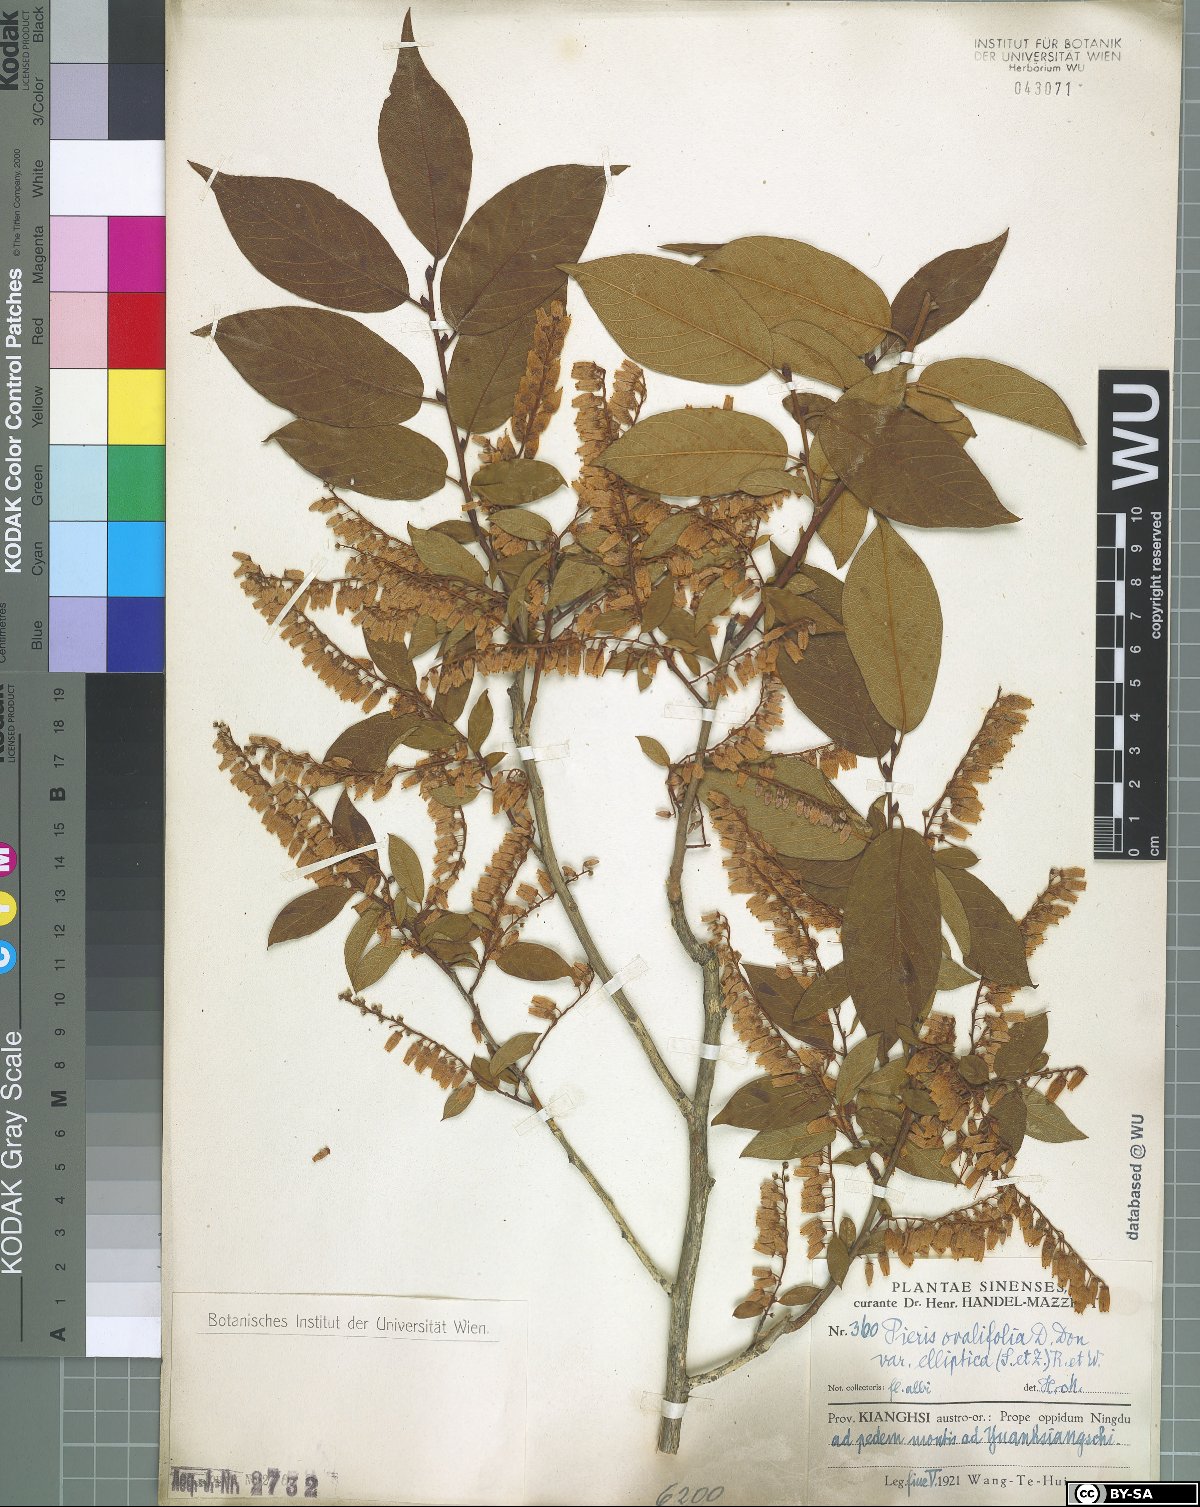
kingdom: Plantae
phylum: Tracheophyta
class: Magnoliopsida
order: Ericales
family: Ericaceae
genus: Lyonia
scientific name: Lyonia ovalifolia
